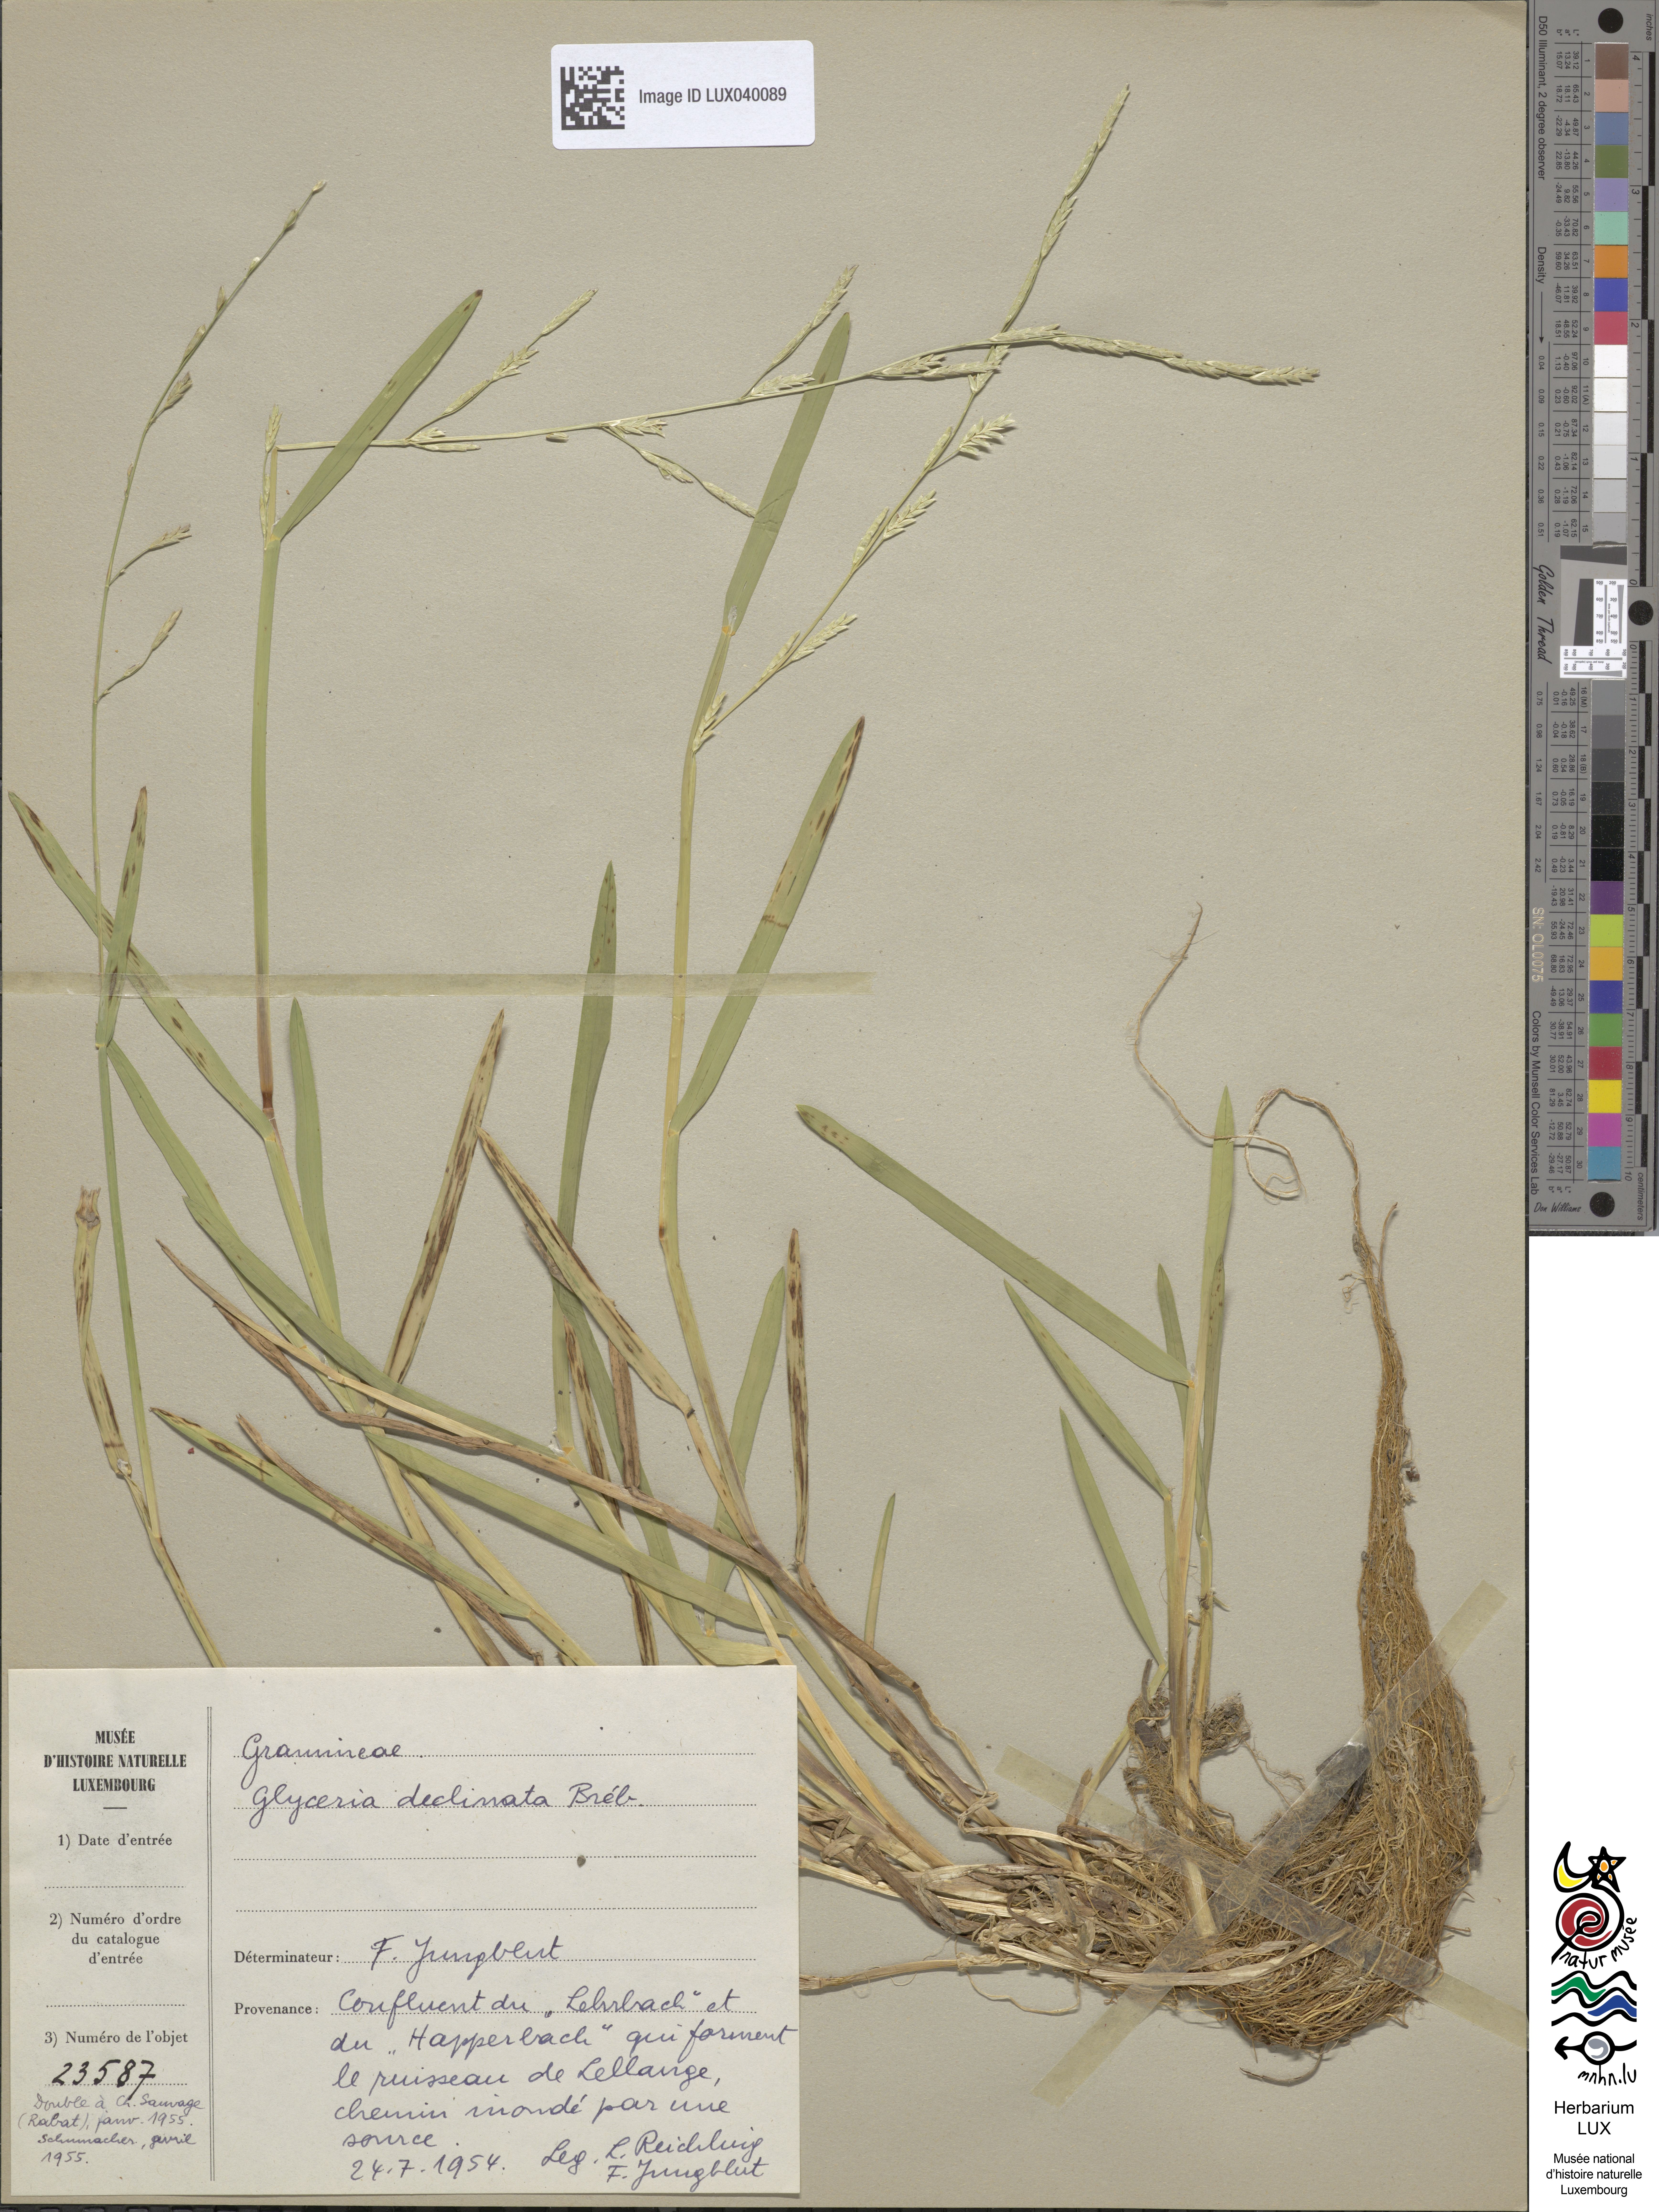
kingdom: Plantae
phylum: Tracheophyta
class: Liliopsida
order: Poales
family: Poaceae
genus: Glyceria
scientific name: Glyceria declinata
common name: Small sweet-grass
